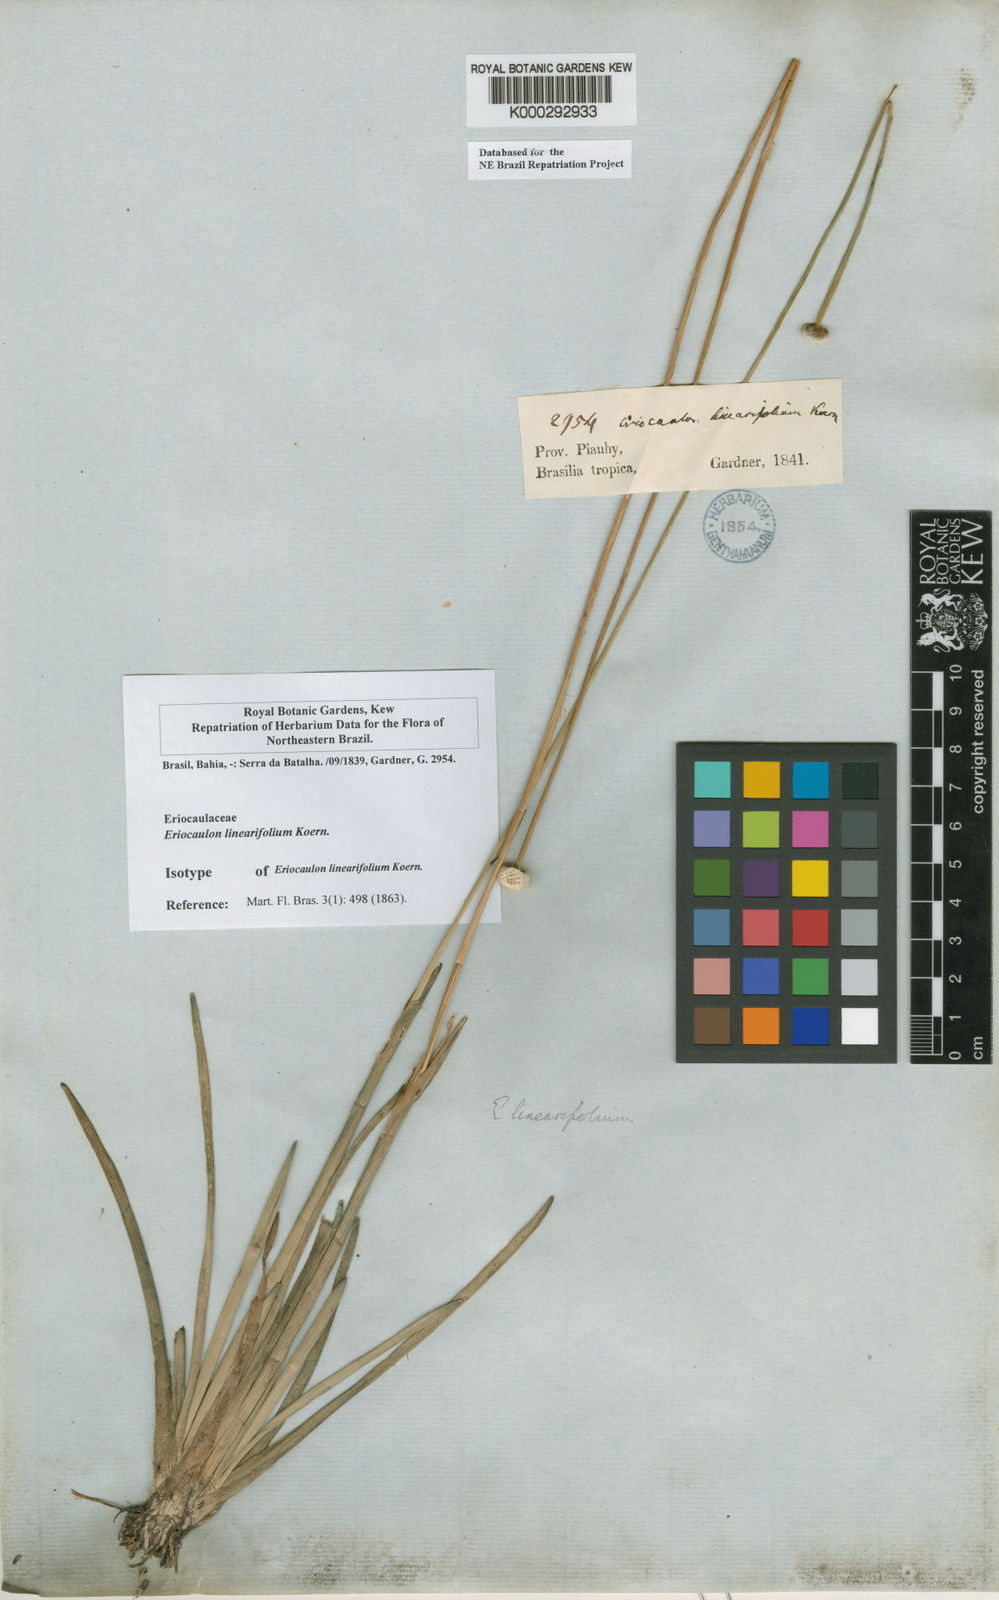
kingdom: Plantae
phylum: Tracheophyta
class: Liliopsida
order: Poales
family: Eriocaulaceae
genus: Eriocaulon
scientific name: Eriocaulon
